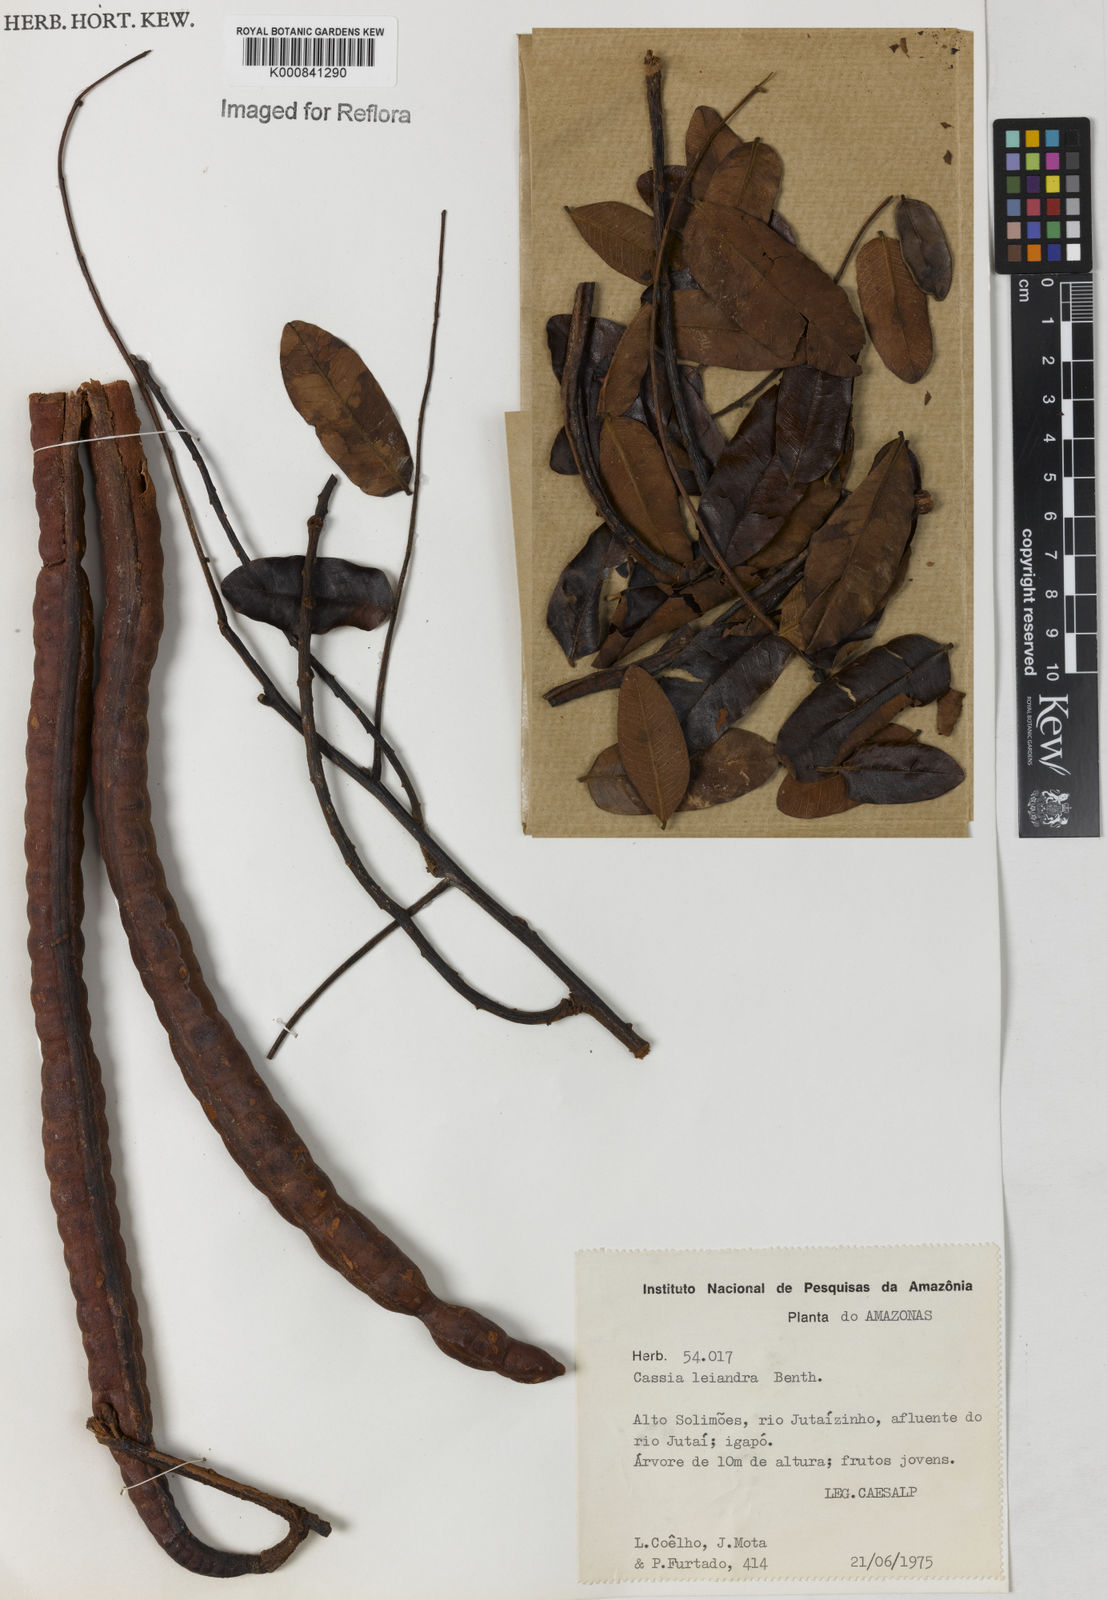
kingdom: Plantae
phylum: Tracheophyta
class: Magnoliopsida
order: Fabales
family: Fabaceae
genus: Cassia
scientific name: Cassia leiandra
